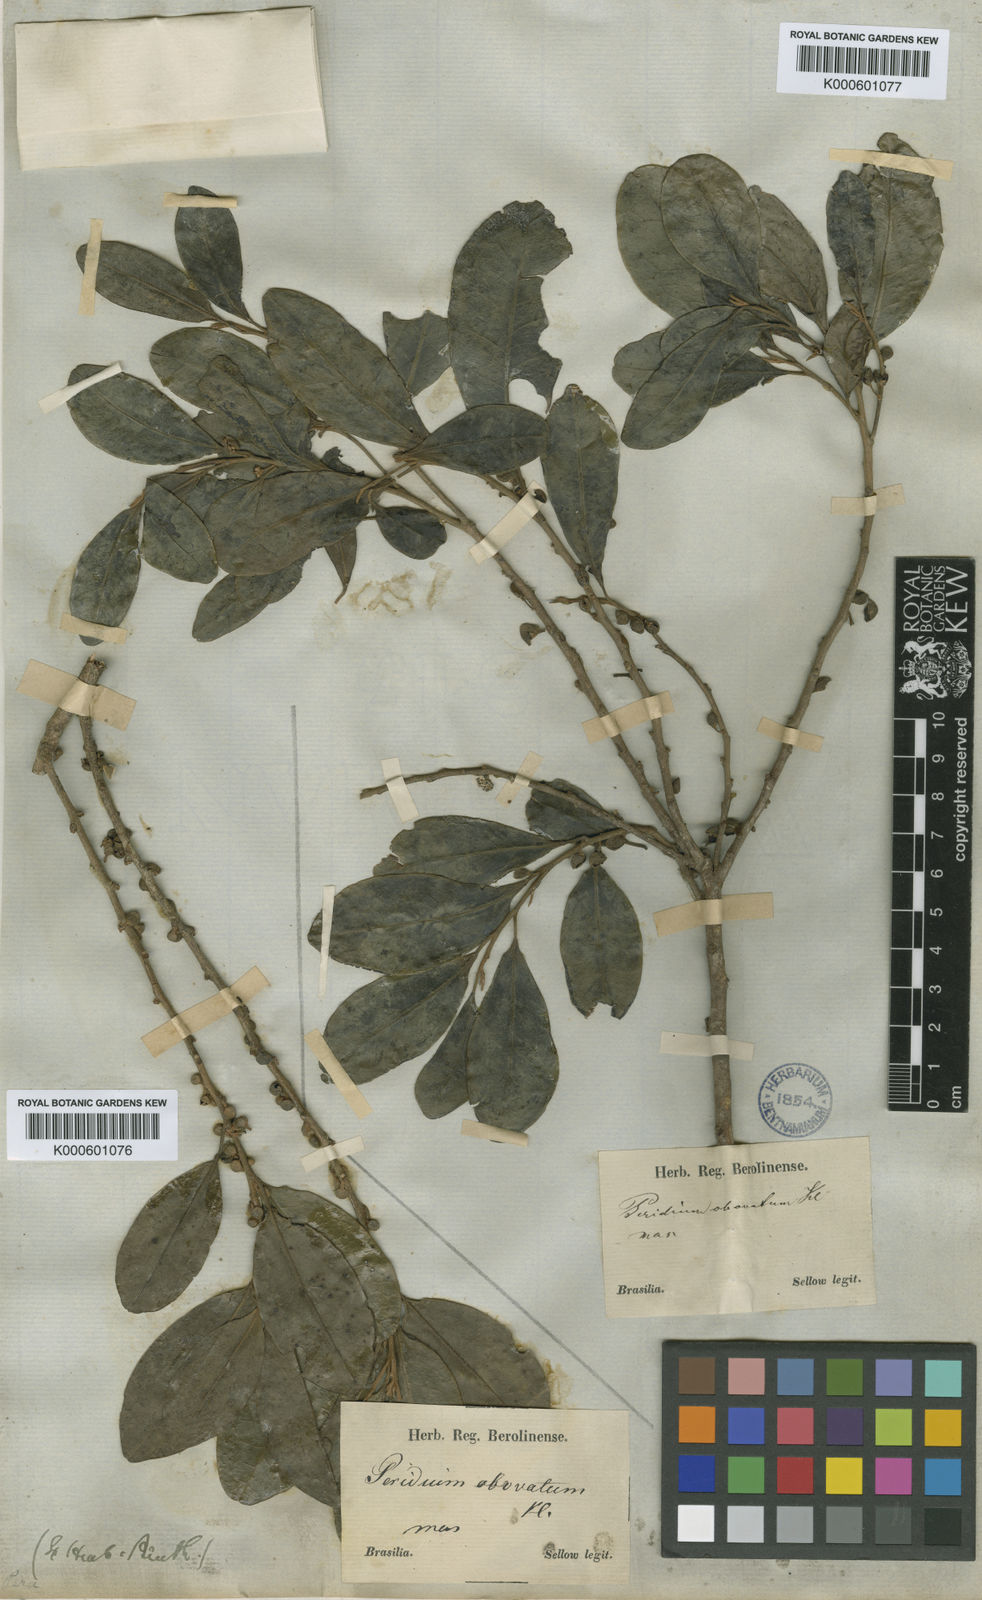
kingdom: Plantae
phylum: Tracheophyta
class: Magnoliopsida
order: Malpighiales
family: Peraceae
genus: Pera
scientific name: Pera glabrata
